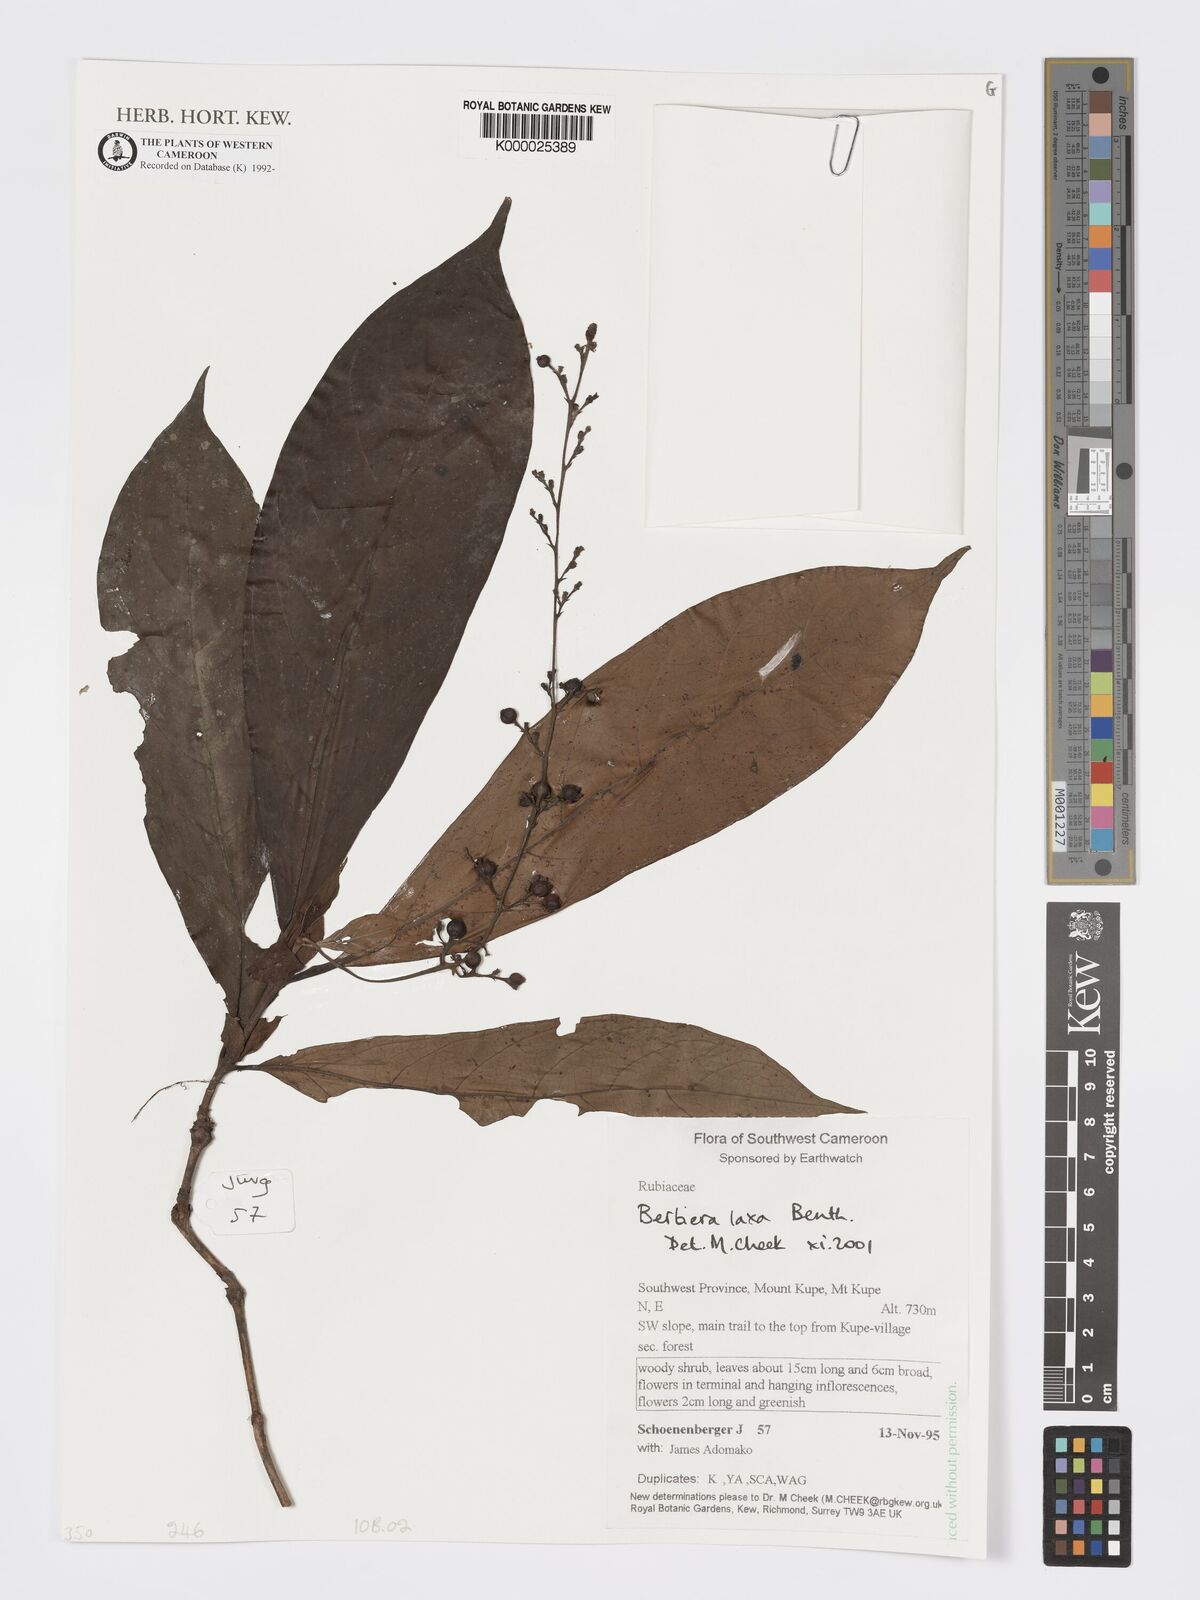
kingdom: Plantae
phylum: Tracheophyta
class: Magnoliopsida
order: Gentianales
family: Rubiaceae
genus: Bertiera
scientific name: Bertiera laxa
